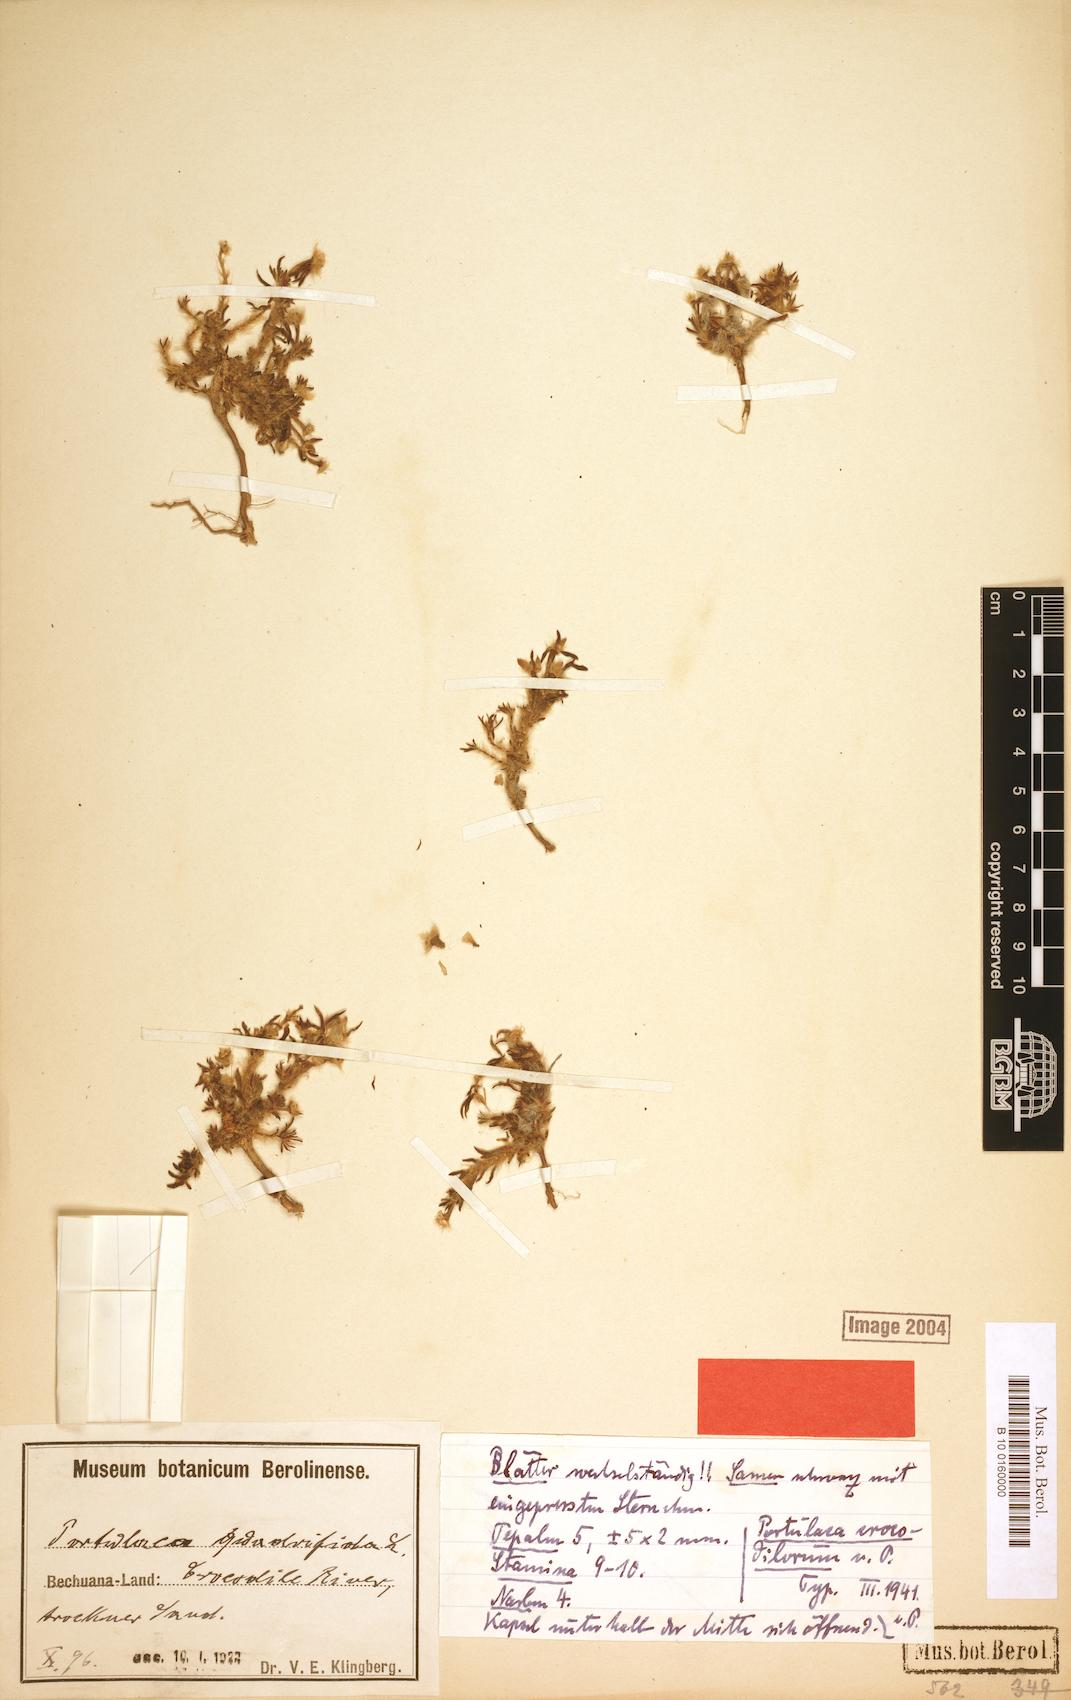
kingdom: Plantae
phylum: Tracheophyta
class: Magnoliopsida
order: Caryophyllales
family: Portulacaceae
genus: Portulaca
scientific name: Portulaca kermesina
